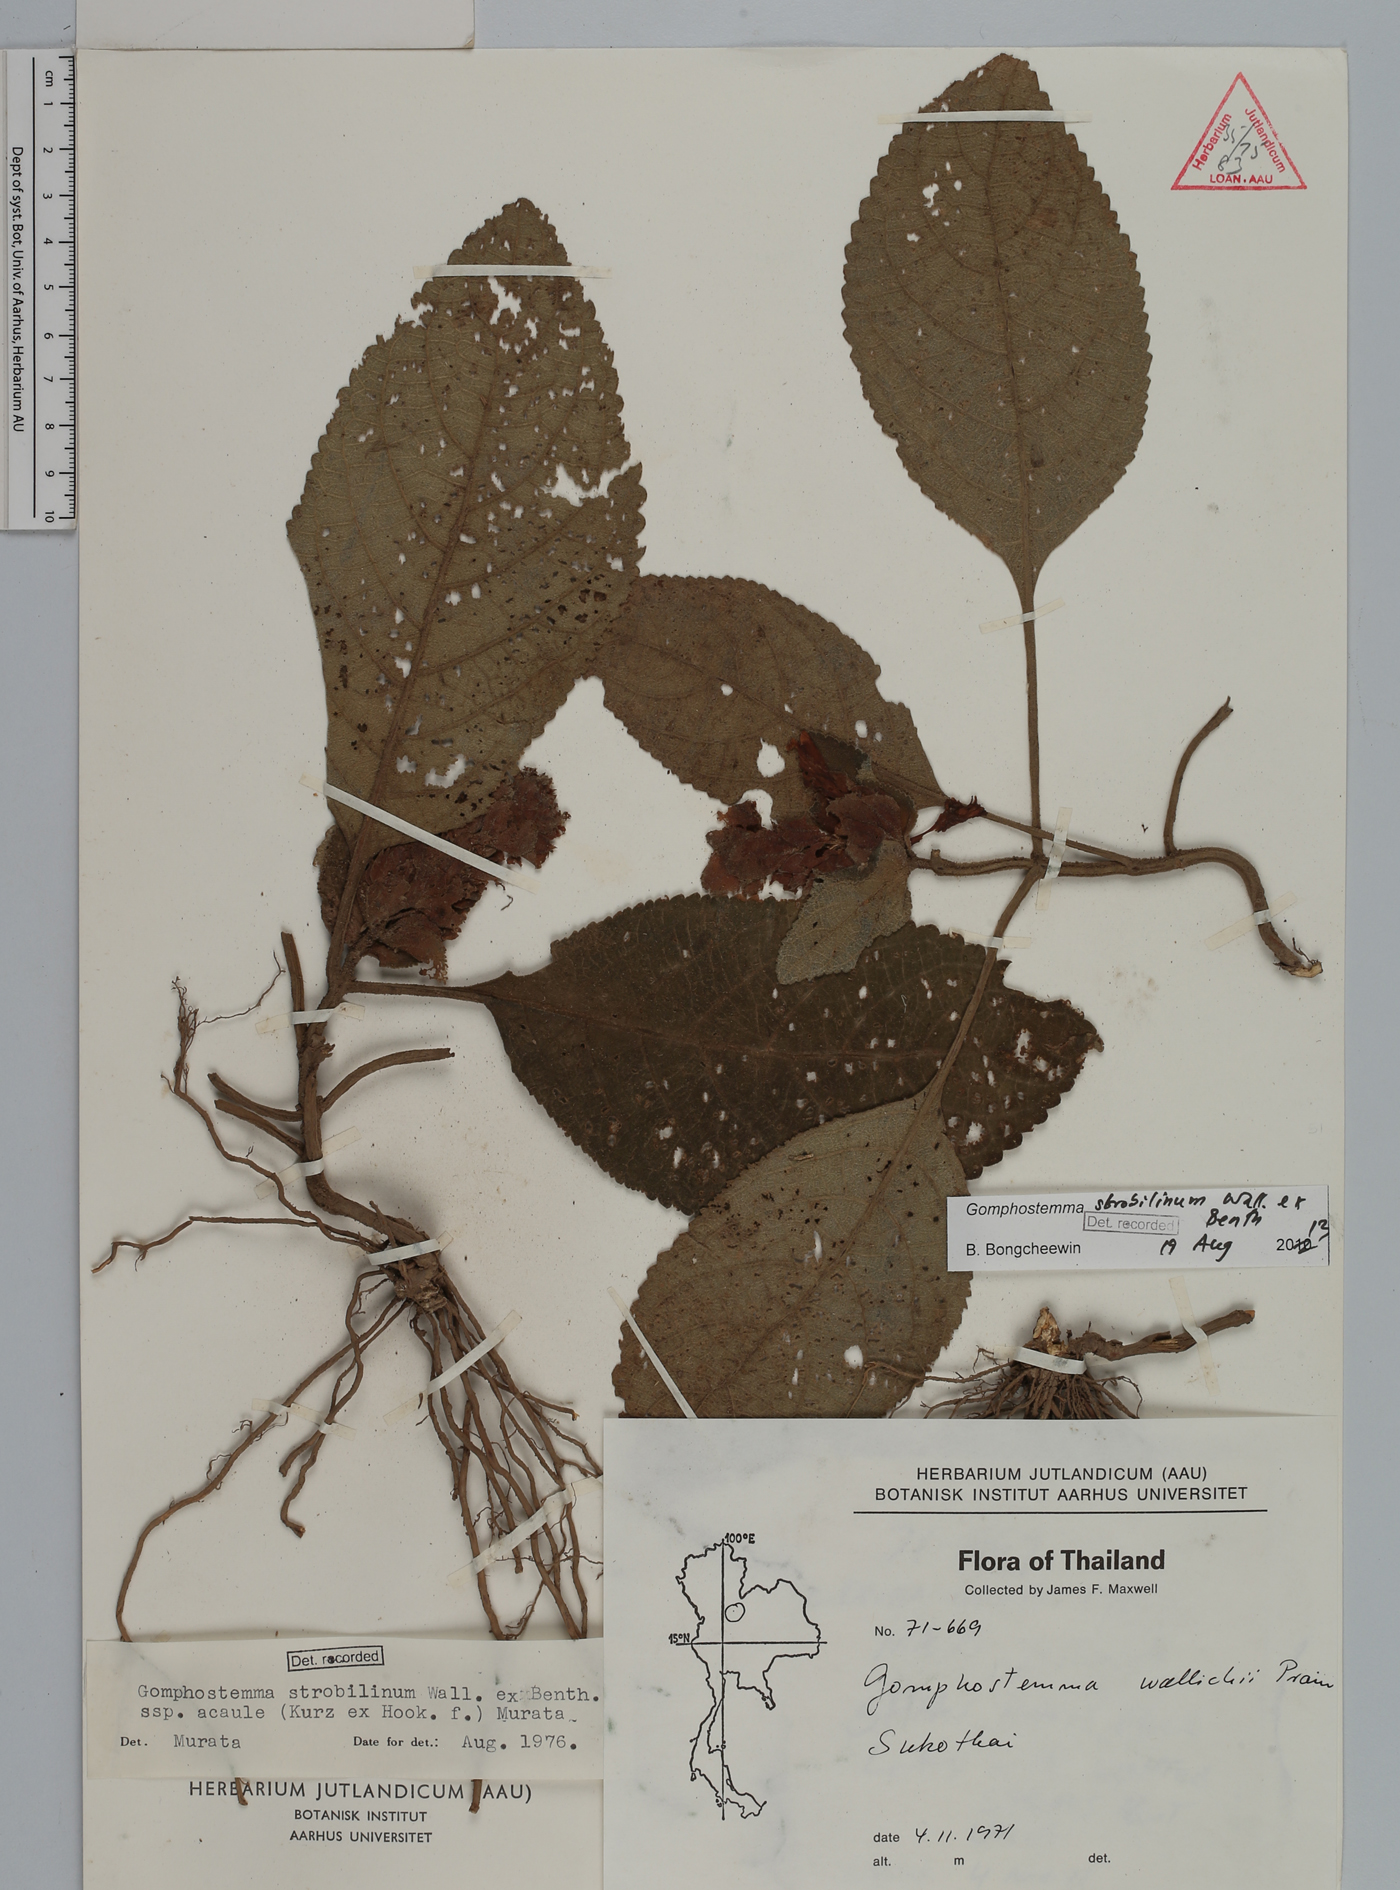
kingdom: Plantae
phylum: Tracheophyta
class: Magnoliopsida
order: Lamiales
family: Lamiaceae
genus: Gomphostemma
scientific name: Gomphostemma strobilinum
